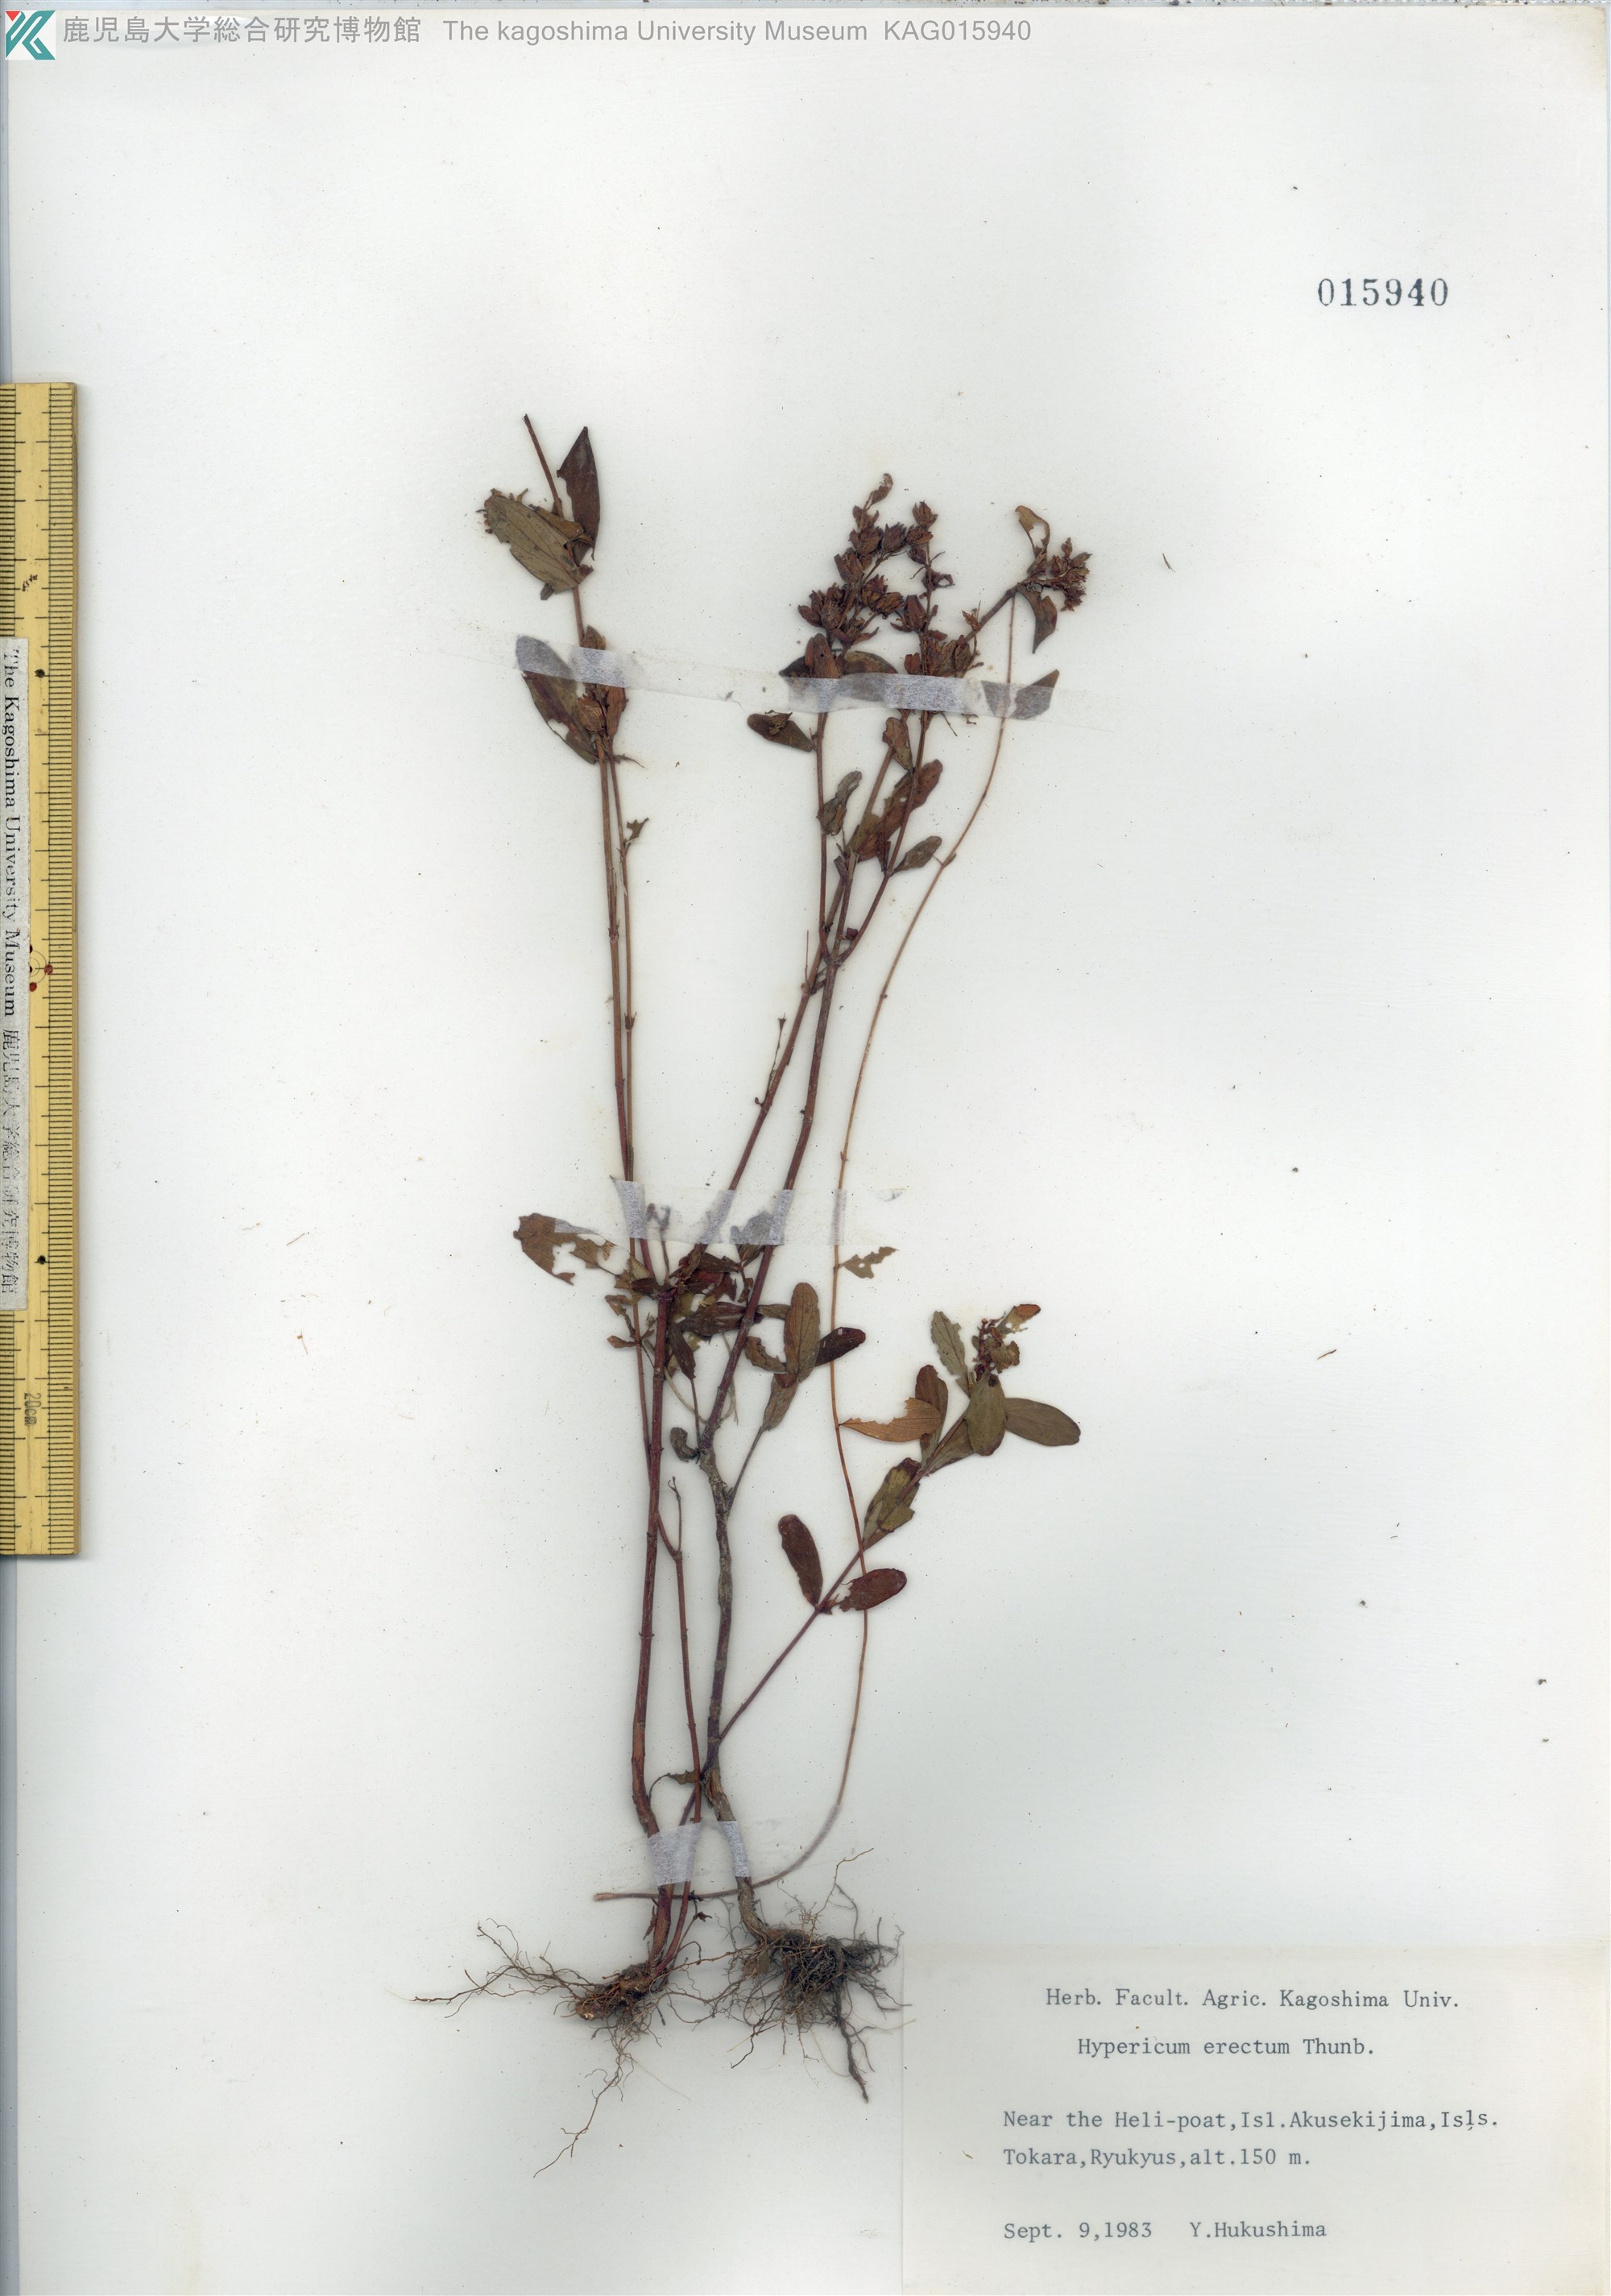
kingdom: Plantae
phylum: Tracheophyta
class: Magnoliopsida
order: Malpighiales
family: Hypericaceae
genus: Hypericum
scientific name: Hypericum erectum
